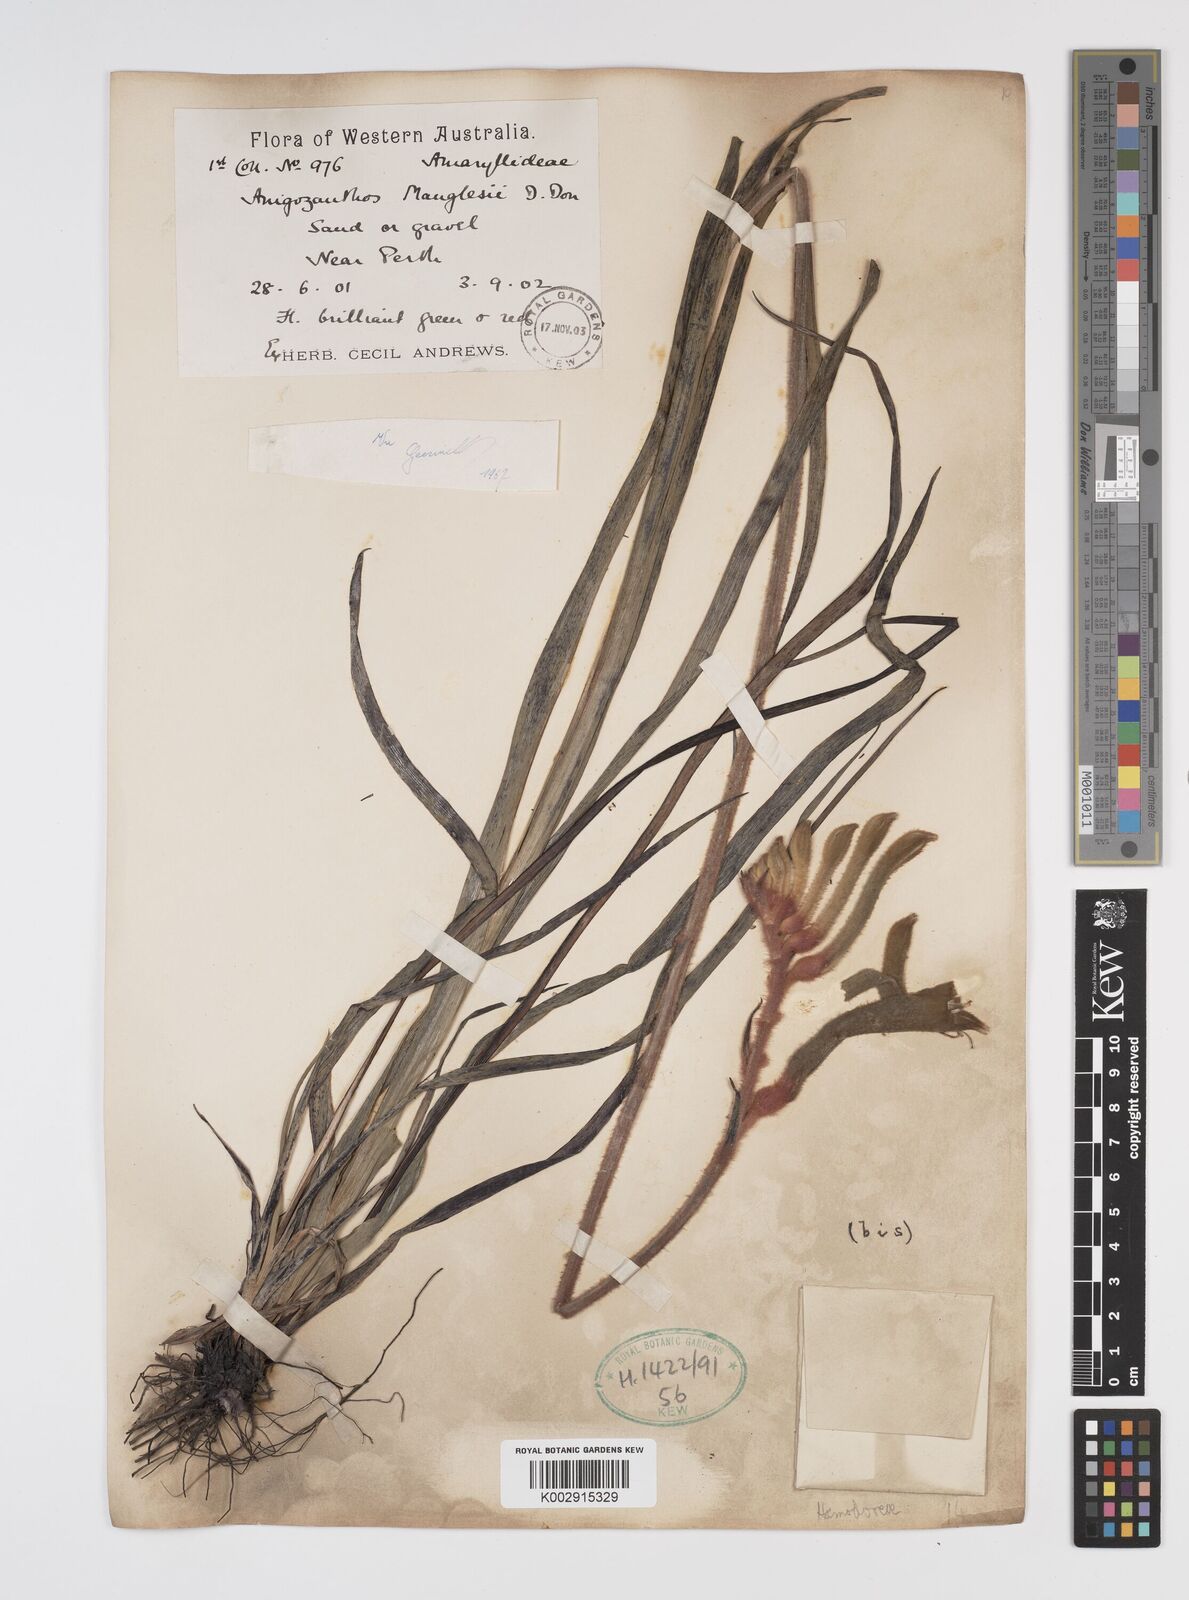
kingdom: Plantae
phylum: Tracheophyta
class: Liliopsida
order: Commelinales
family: Haemodoraceae
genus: Anigozanthos
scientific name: Anigozanthos manglesii
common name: Mangles's kangaroo-paw
